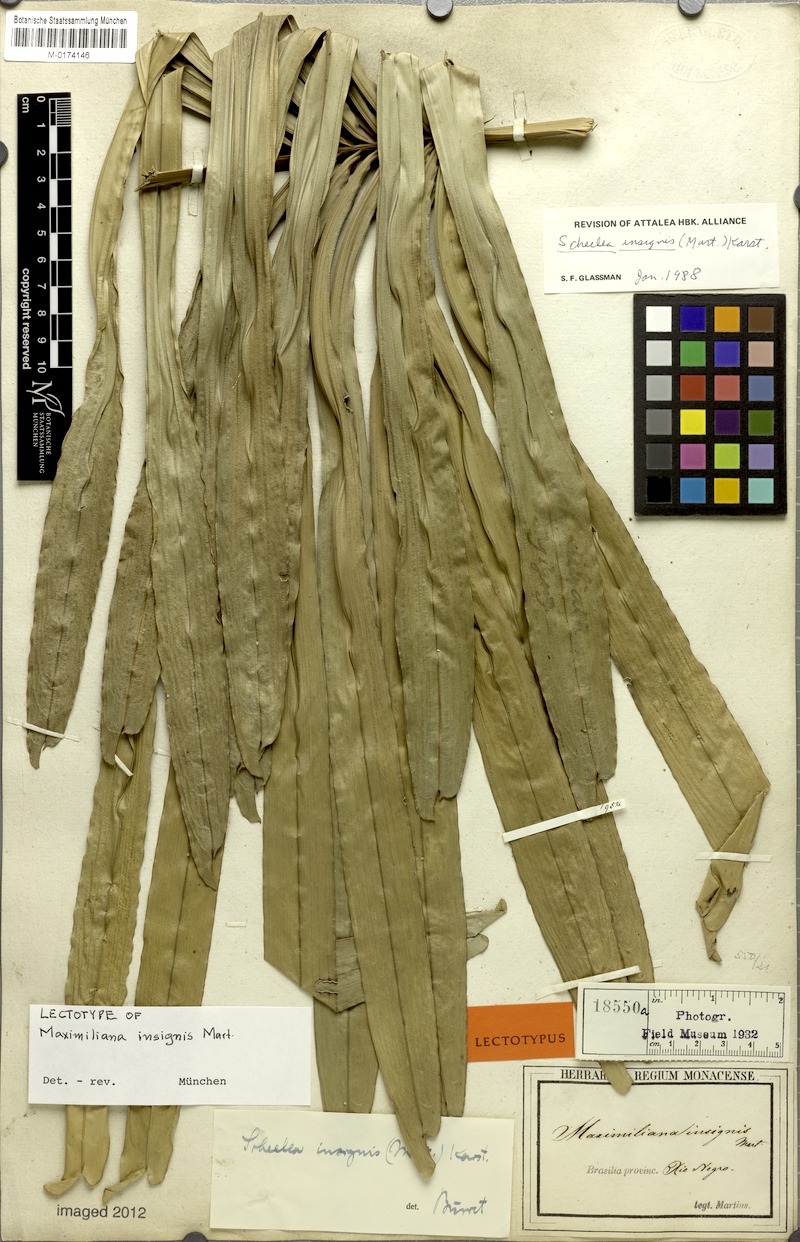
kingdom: Plantae
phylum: Tracheophyta
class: Liliopsida
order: Arecales
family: Arecaceae
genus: Attalea
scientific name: Attalea insignis
